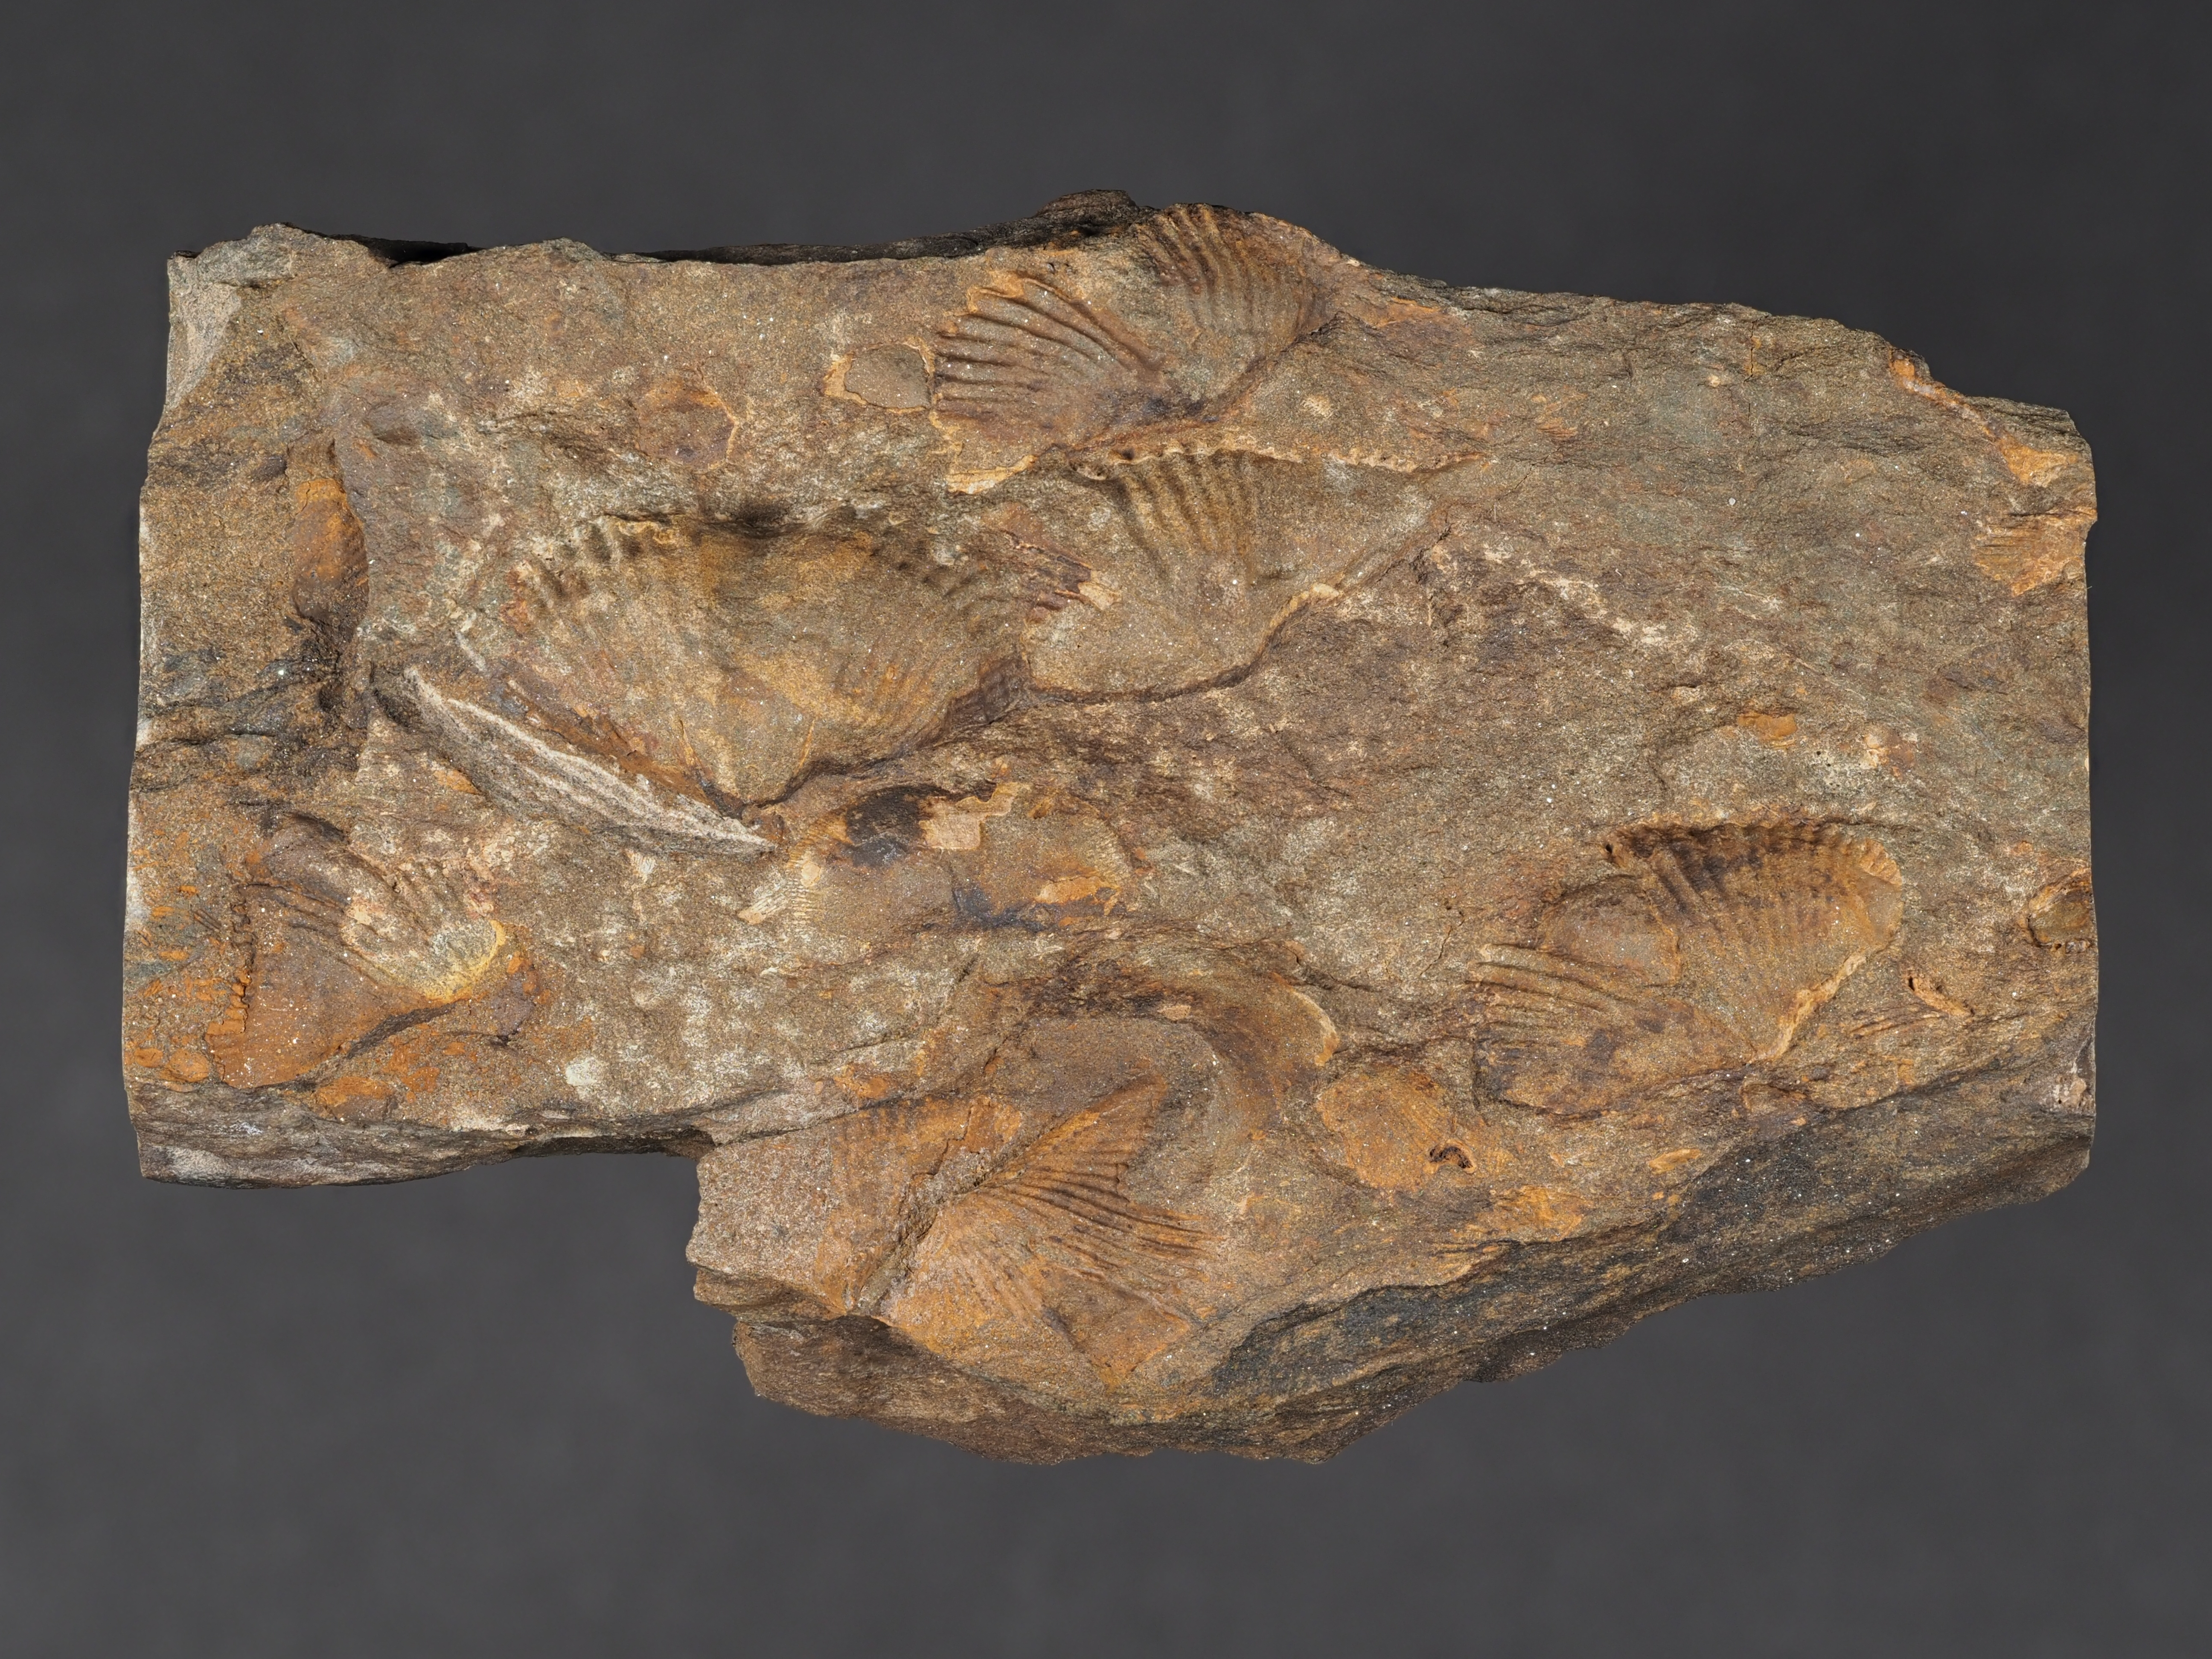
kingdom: Animalia
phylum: Brachiopoda
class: Rhynchonellata
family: Delthyrididae
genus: Brachyspirifer
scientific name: Brachyspirifer
